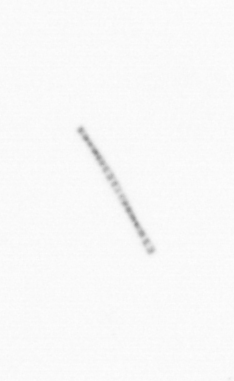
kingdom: Chromista
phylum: Ochrophyta
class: Bacillariophyceae
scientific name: Bacillariophyceae
